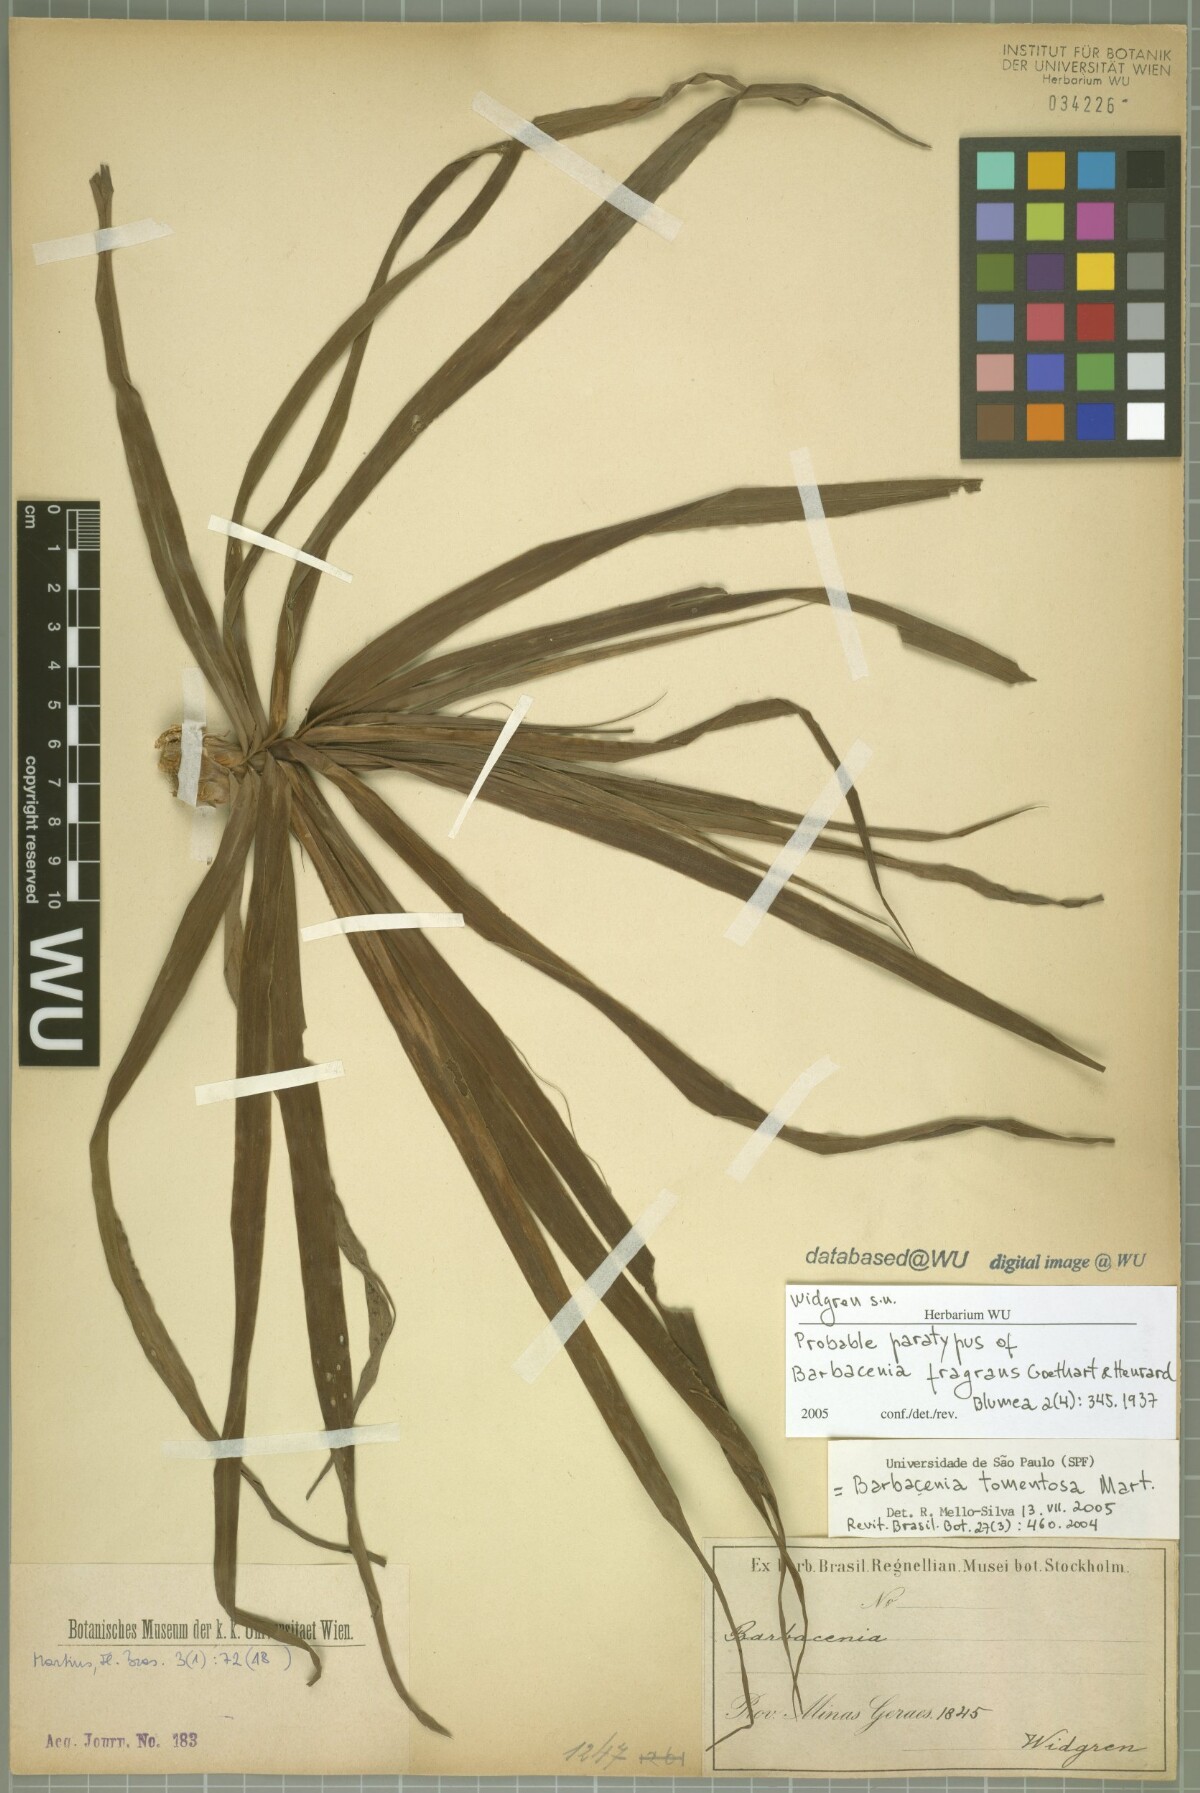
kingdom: Plantae
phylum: Tracheophyta
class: Liliopsida
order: Pandanales
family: Velloziaceae
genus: Barbacenia
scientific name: Barbacenia fragrans
